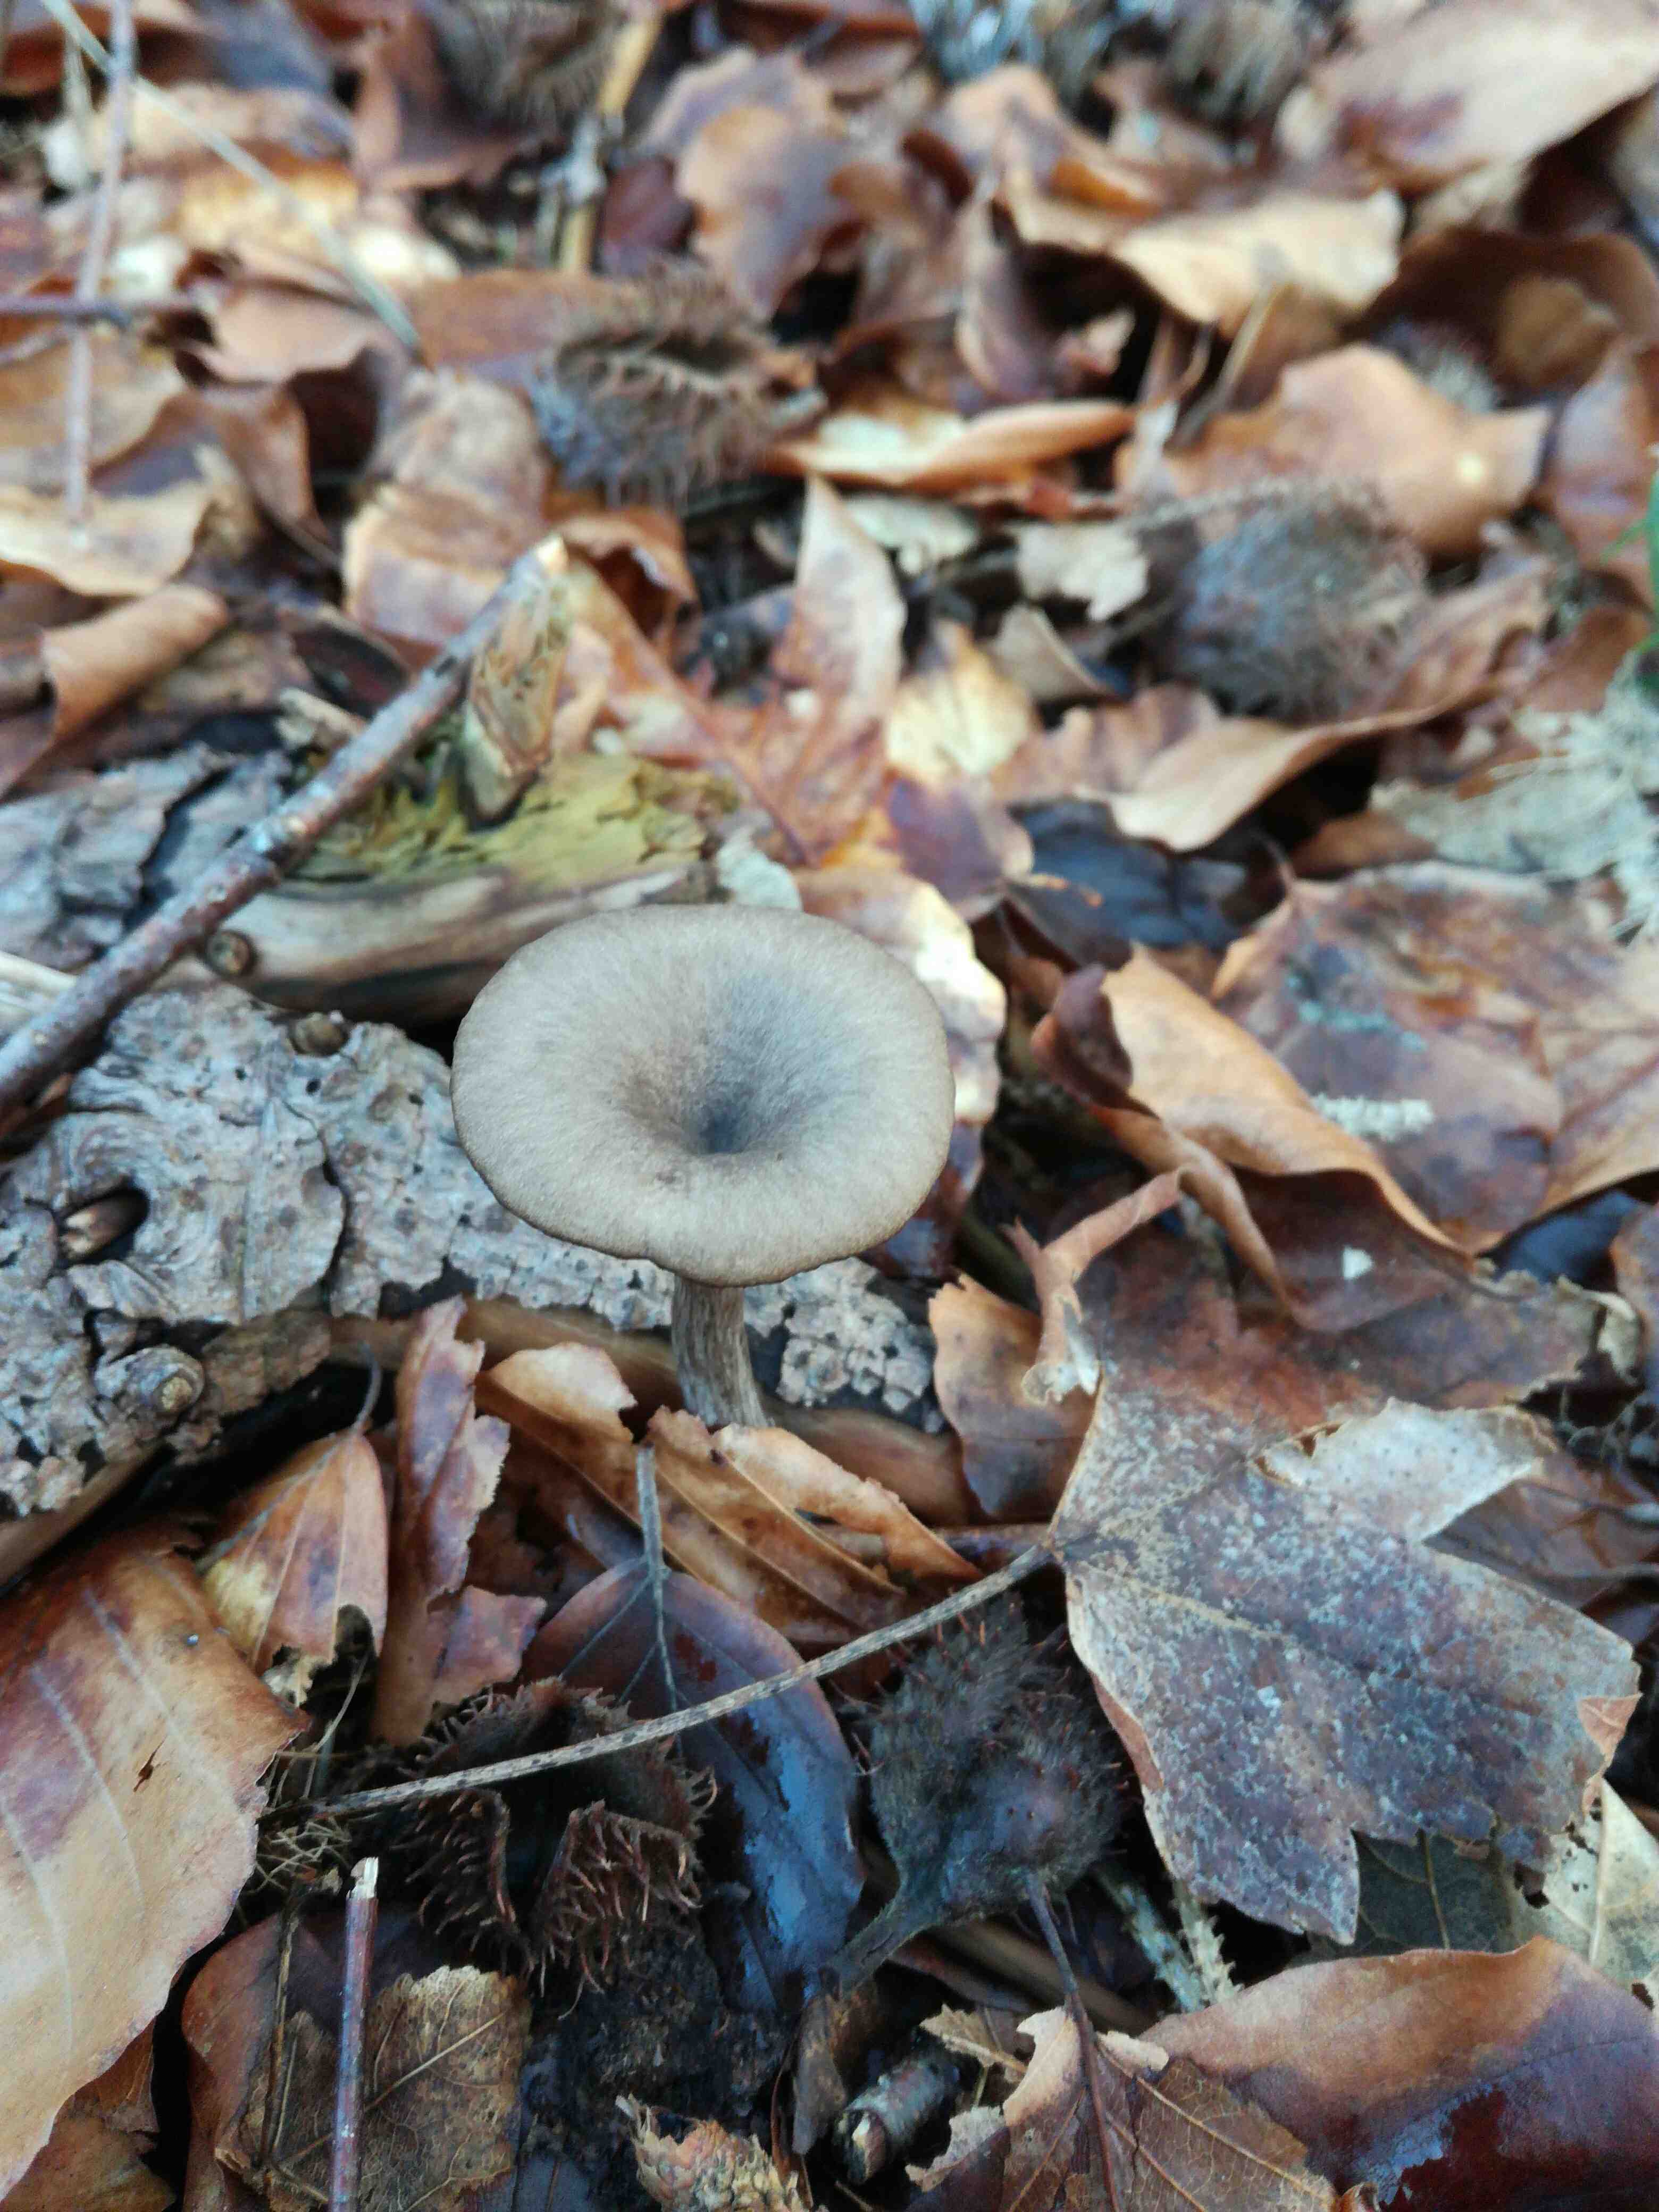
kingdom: Fungi
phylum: Basidiomycota
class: Agaricomycetes
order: Agaricales
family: Pseudoclitocybaceae
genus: Pseudoclitocybe
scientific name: Pseudoclitocybe cyathiformis
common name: almindelig bægertragthat
